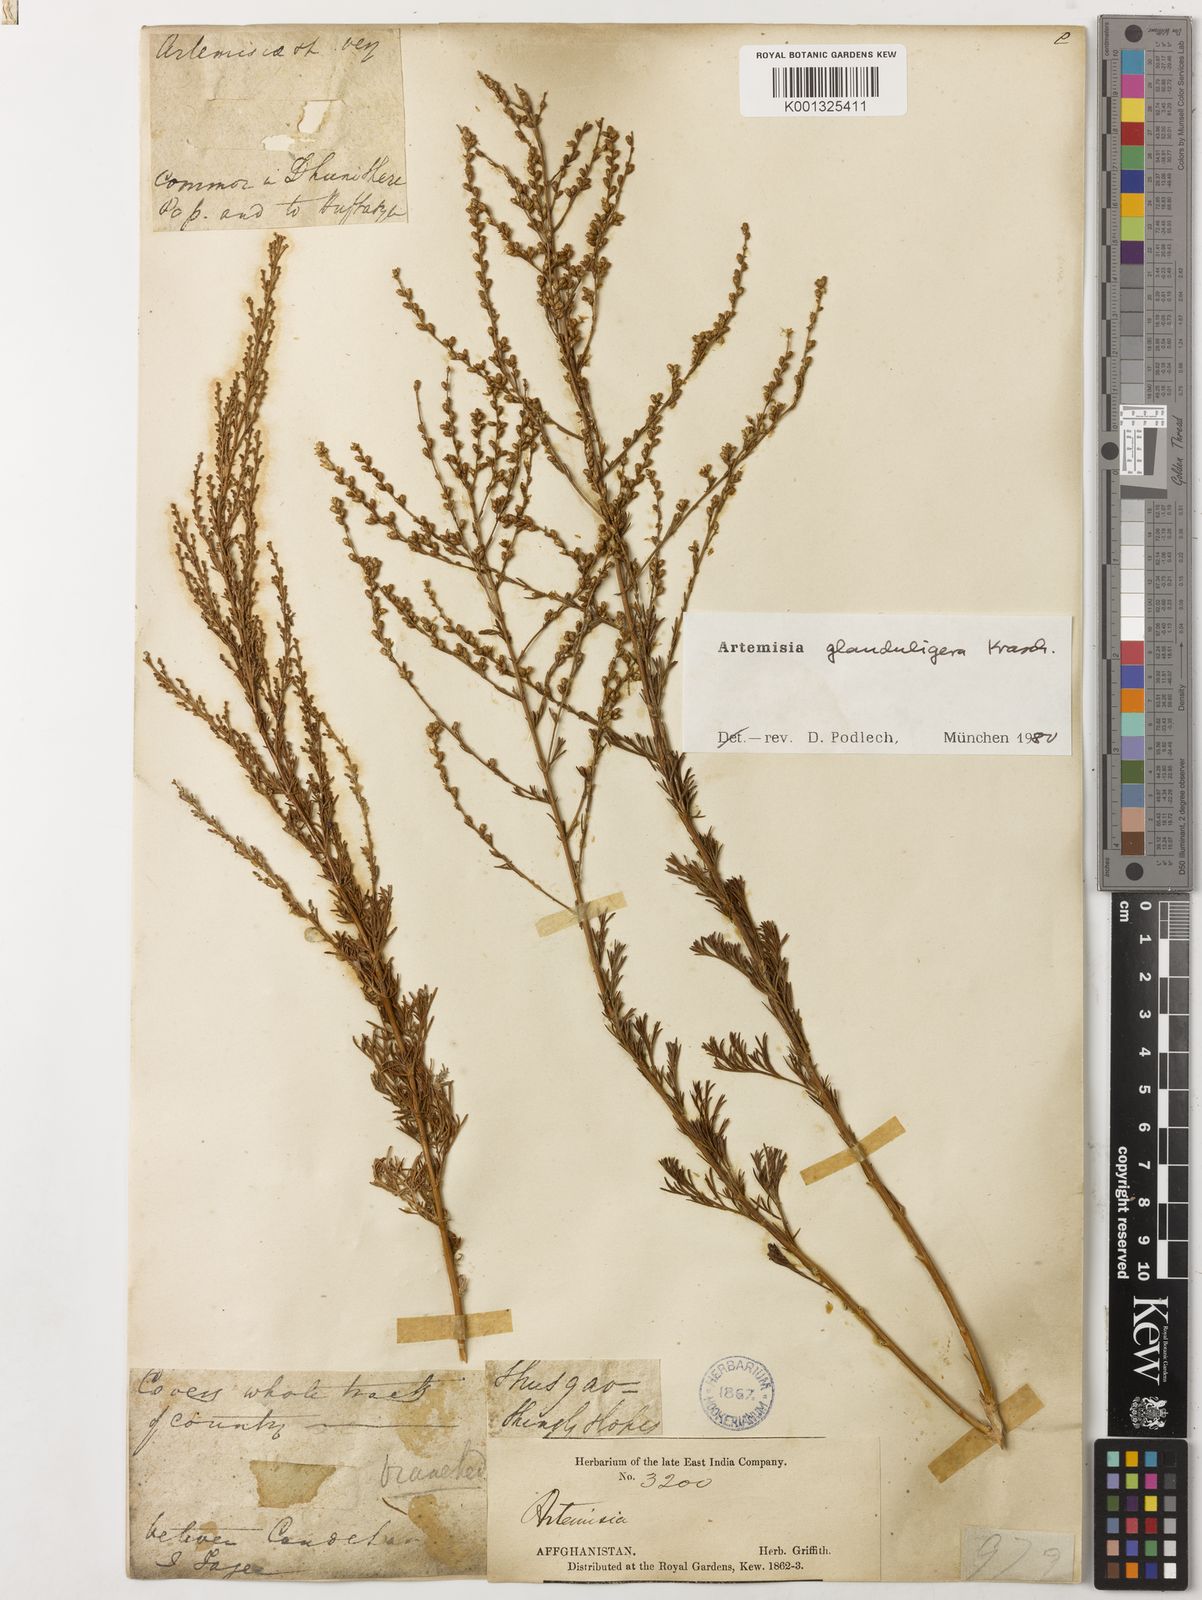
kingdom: Plantae
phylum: Tracheophyta
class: Magnoliopsida
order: Asterales
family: Asteraceae
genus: Artemisia
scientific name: Artemisia glanduligera
